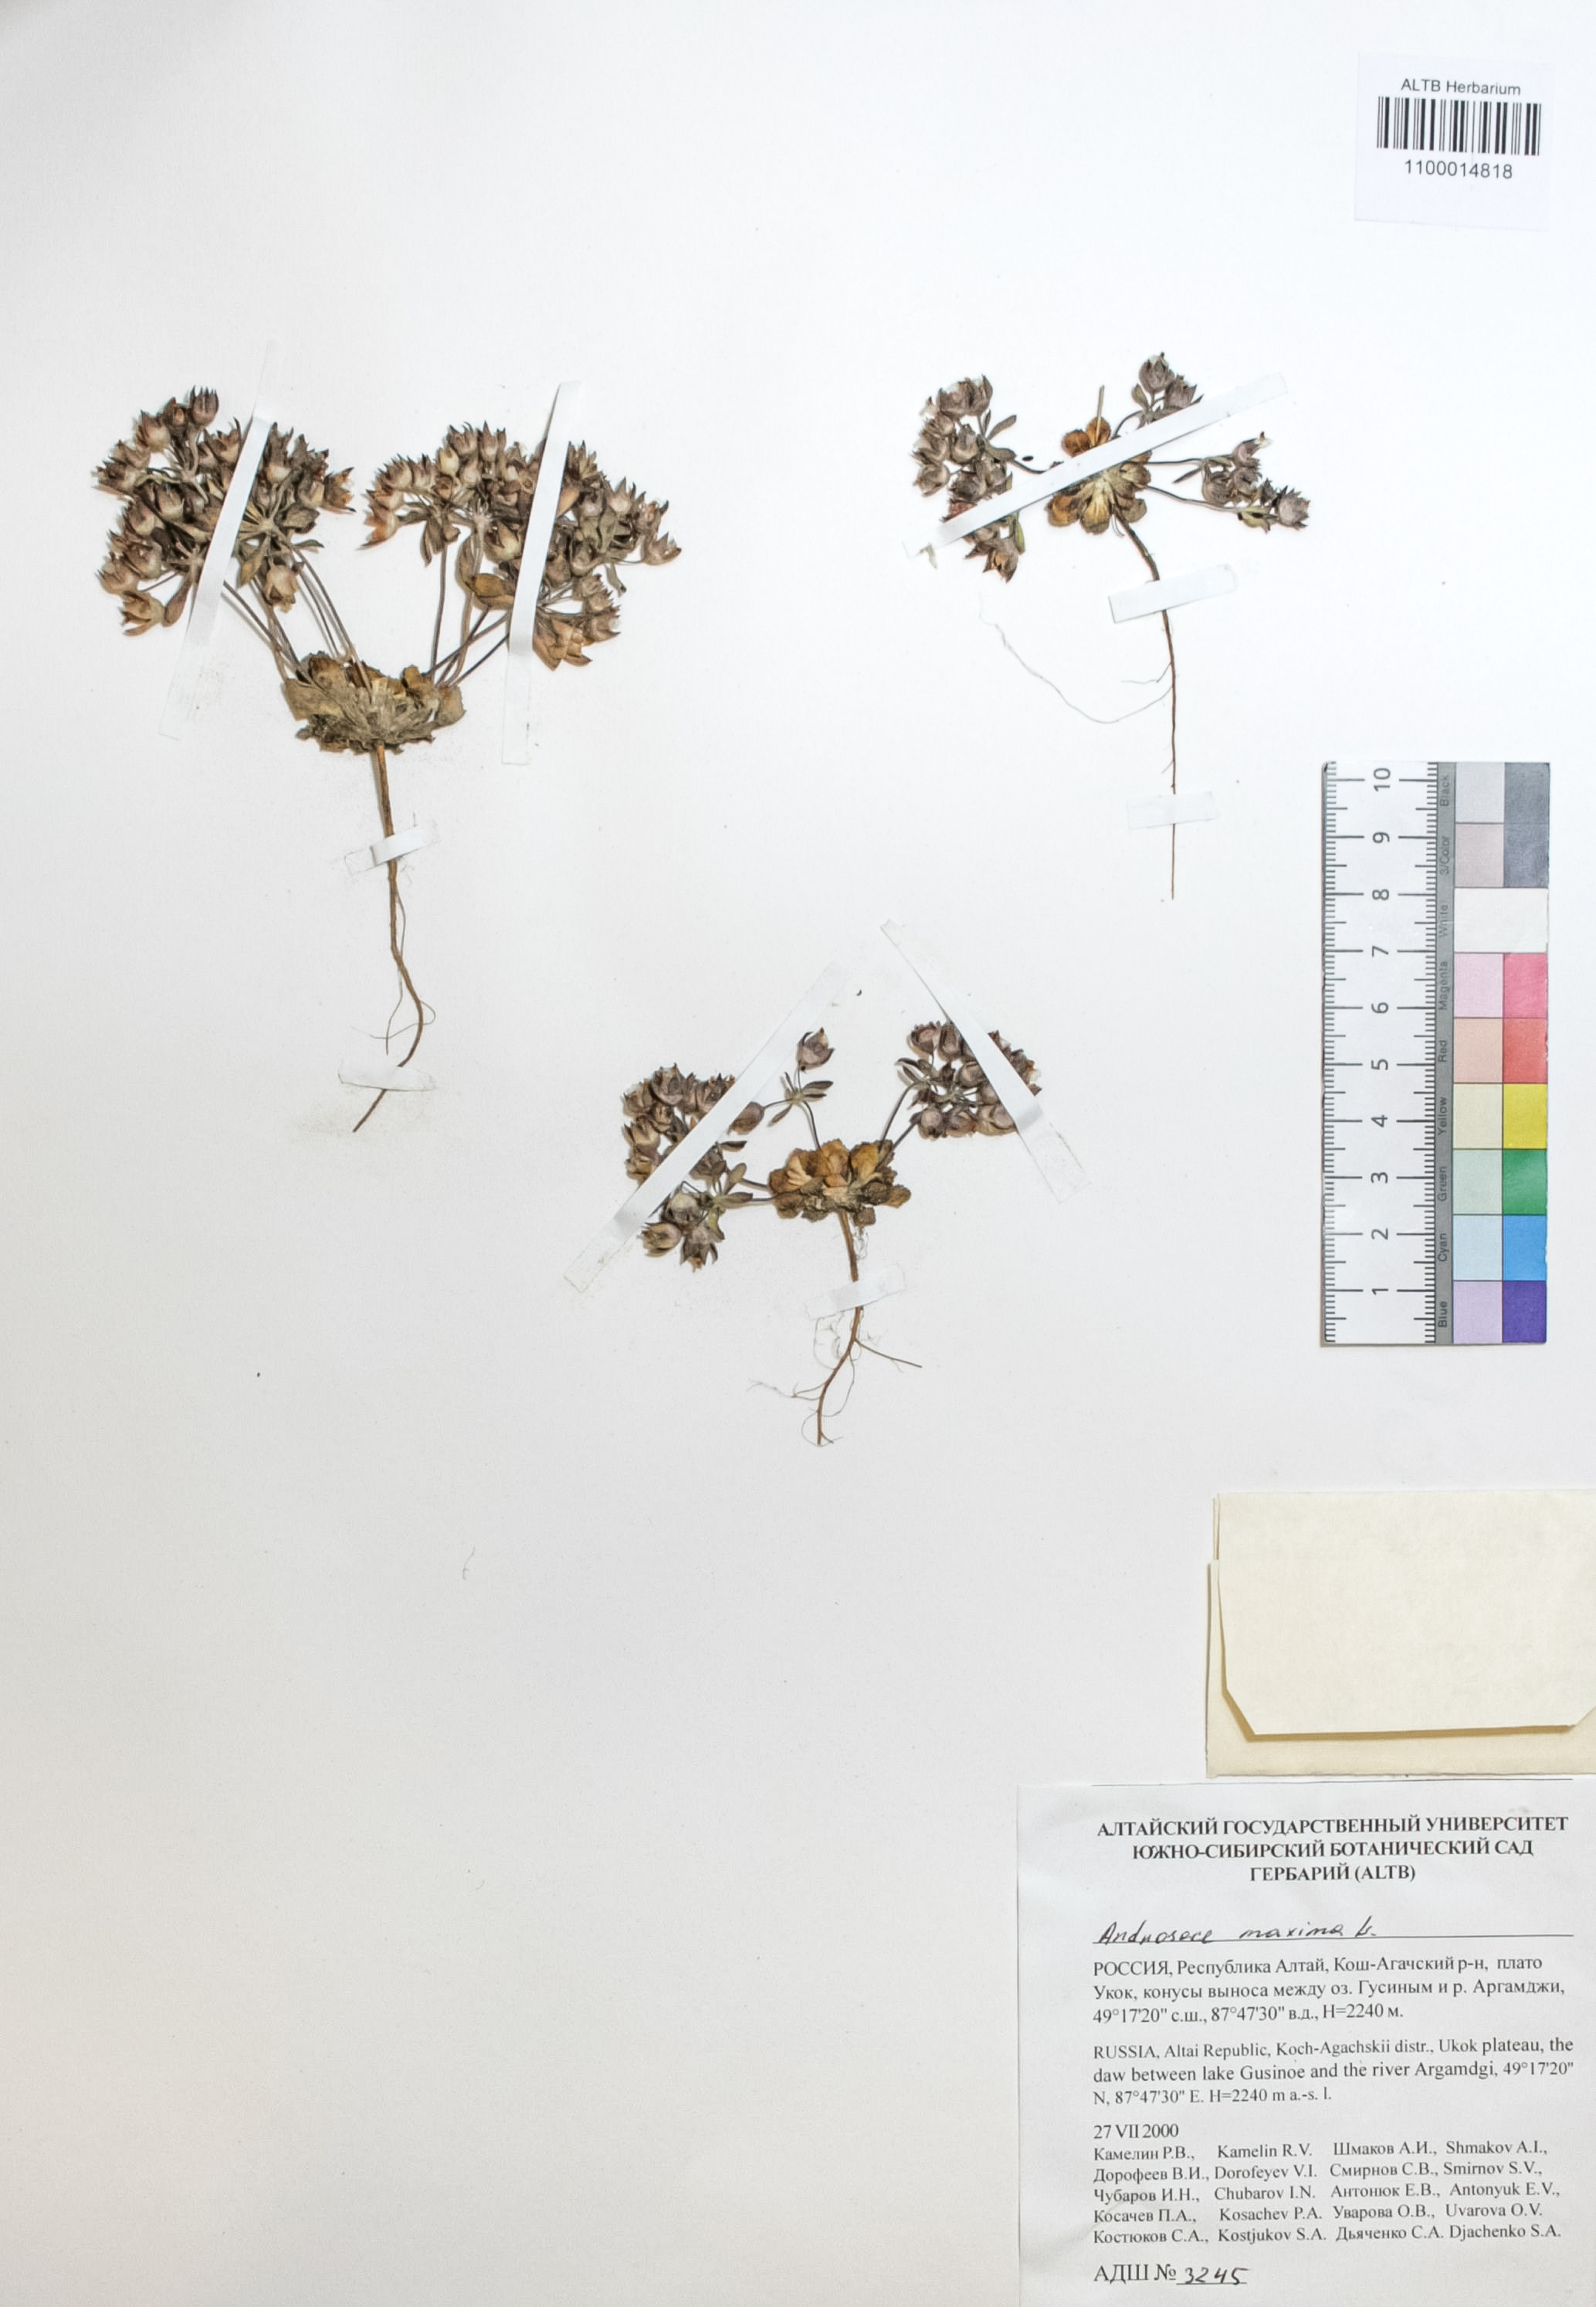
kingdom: Plantae
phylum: Tracheophyta
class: Magnoliopsida
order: Ericales
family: Primulaceae
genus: Androsace
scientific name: Androsace maxima
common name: Annual androsace
